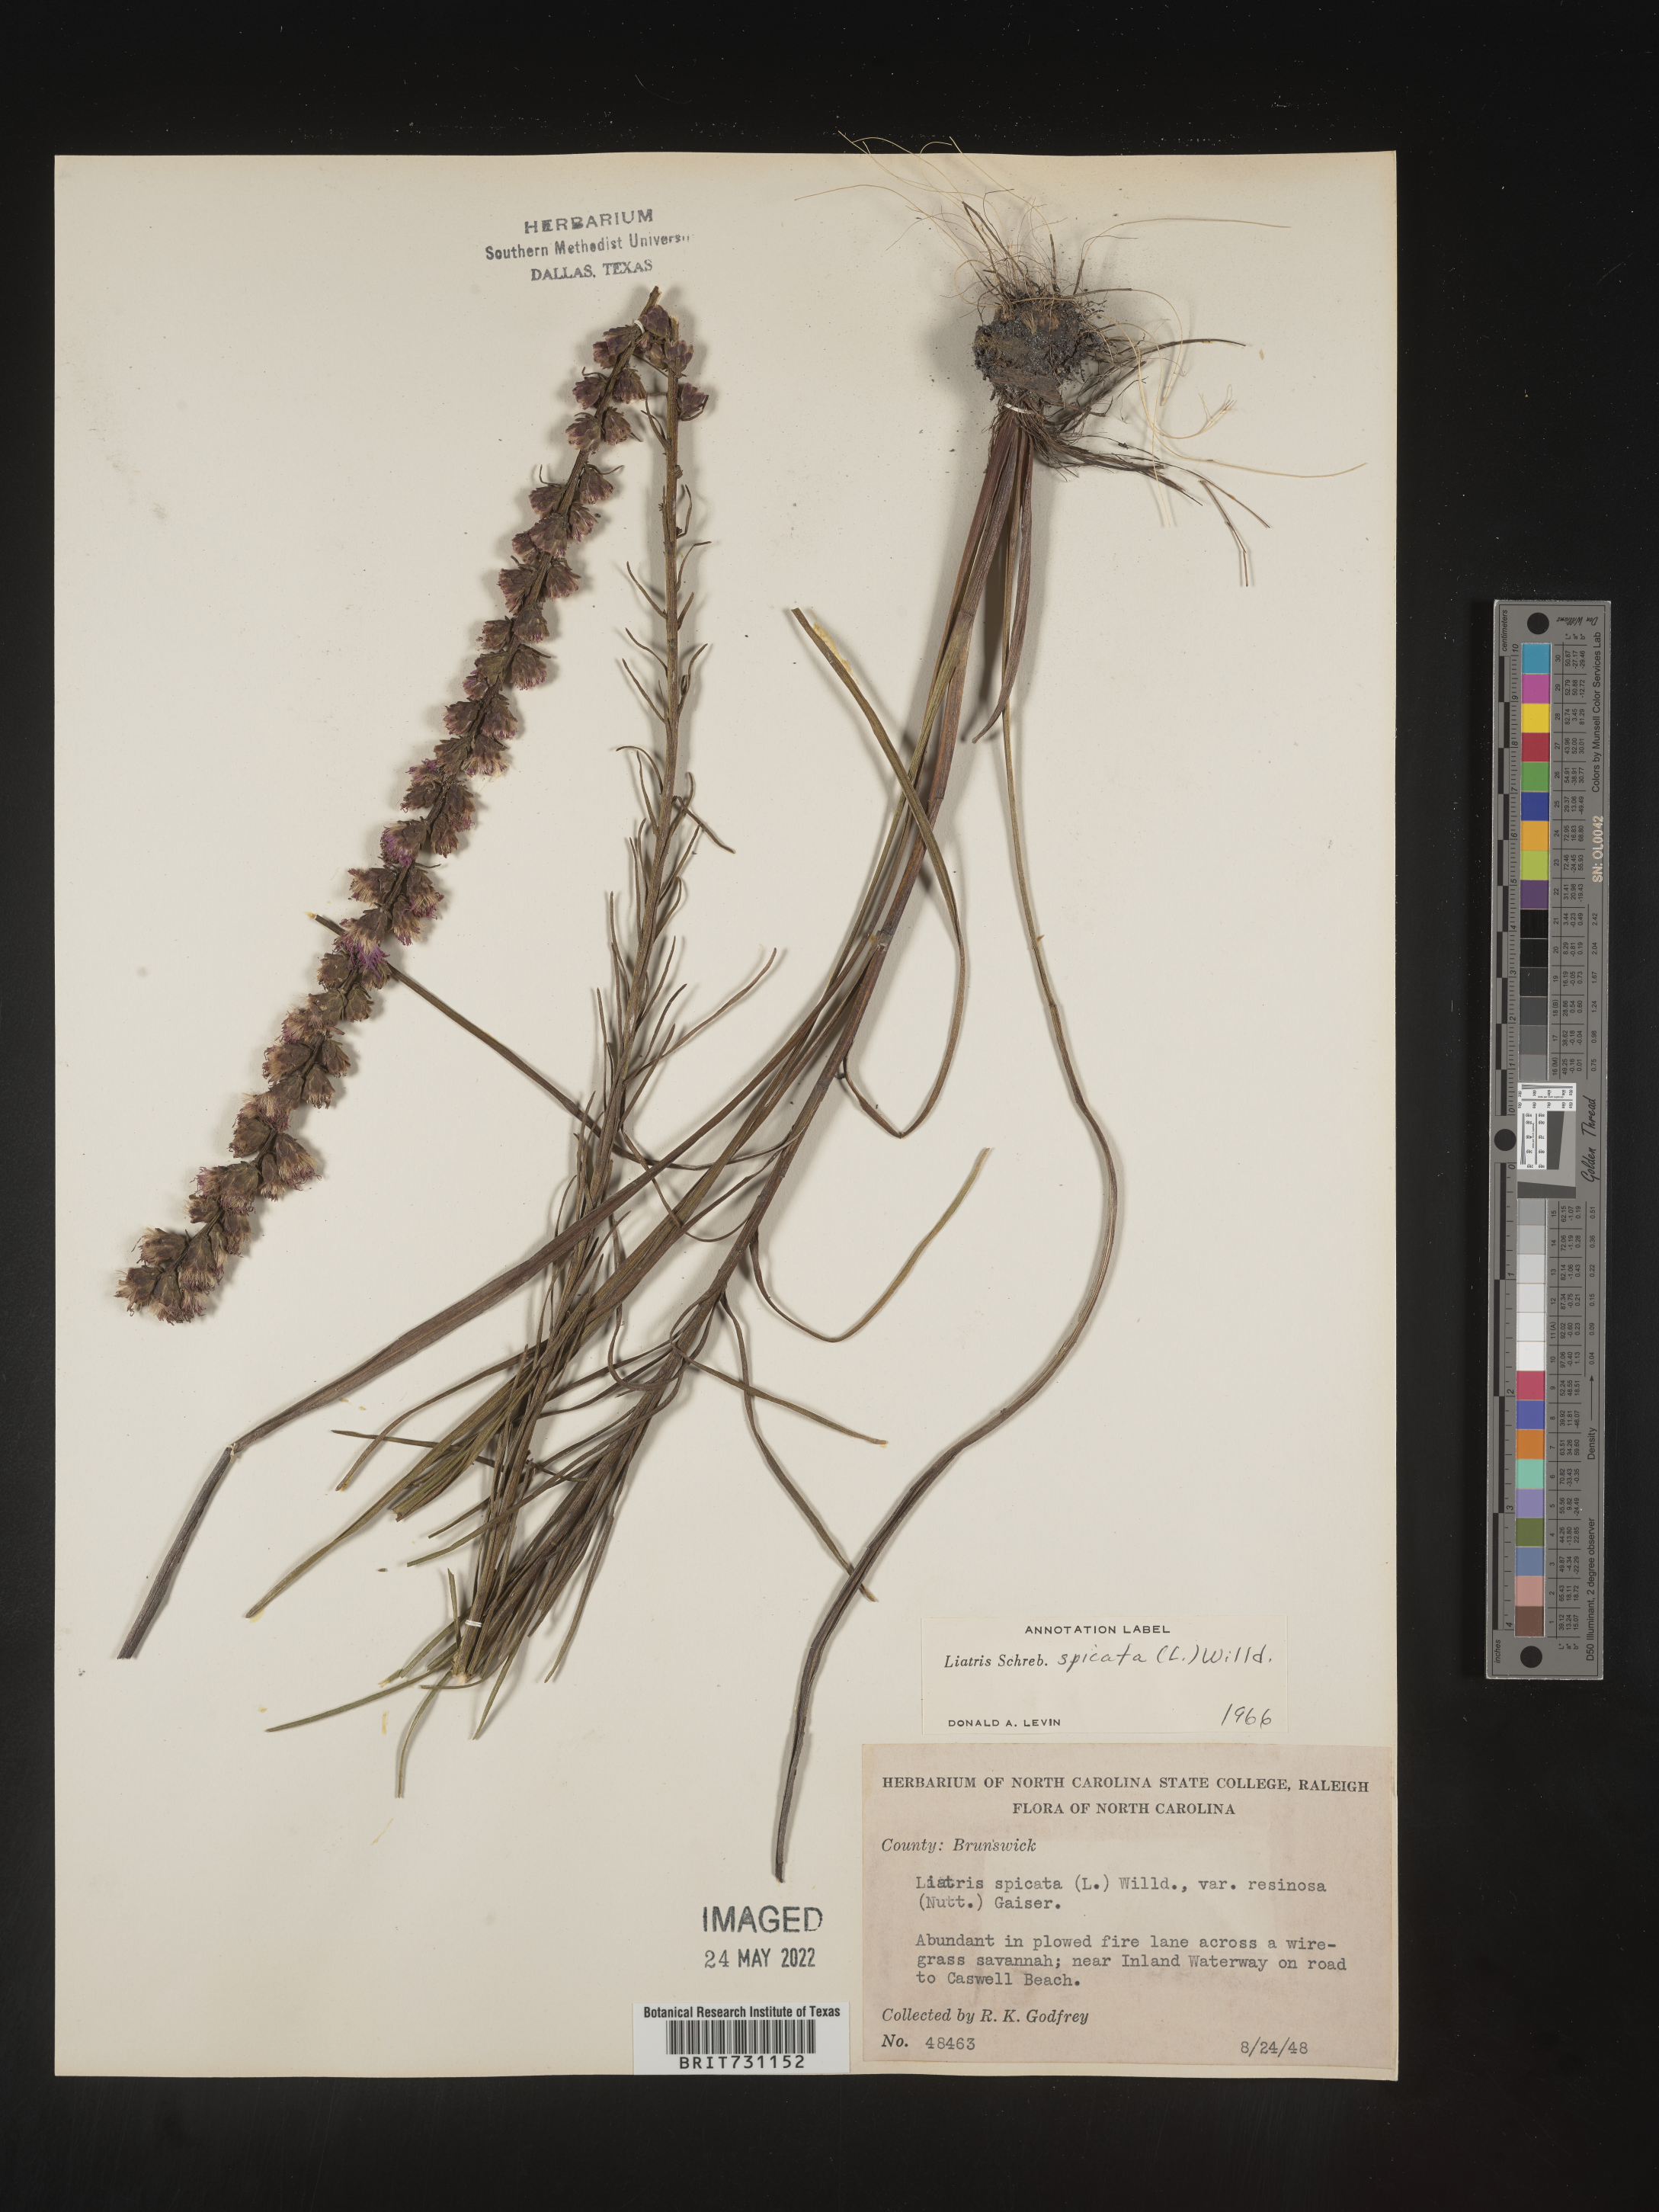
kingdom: Plantae
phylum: Tracheophyta
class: Magnoliopsida
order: Asterales
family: Asteraceae
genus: Liatris
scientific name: Liatris spicata
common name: Florist gayfeather
